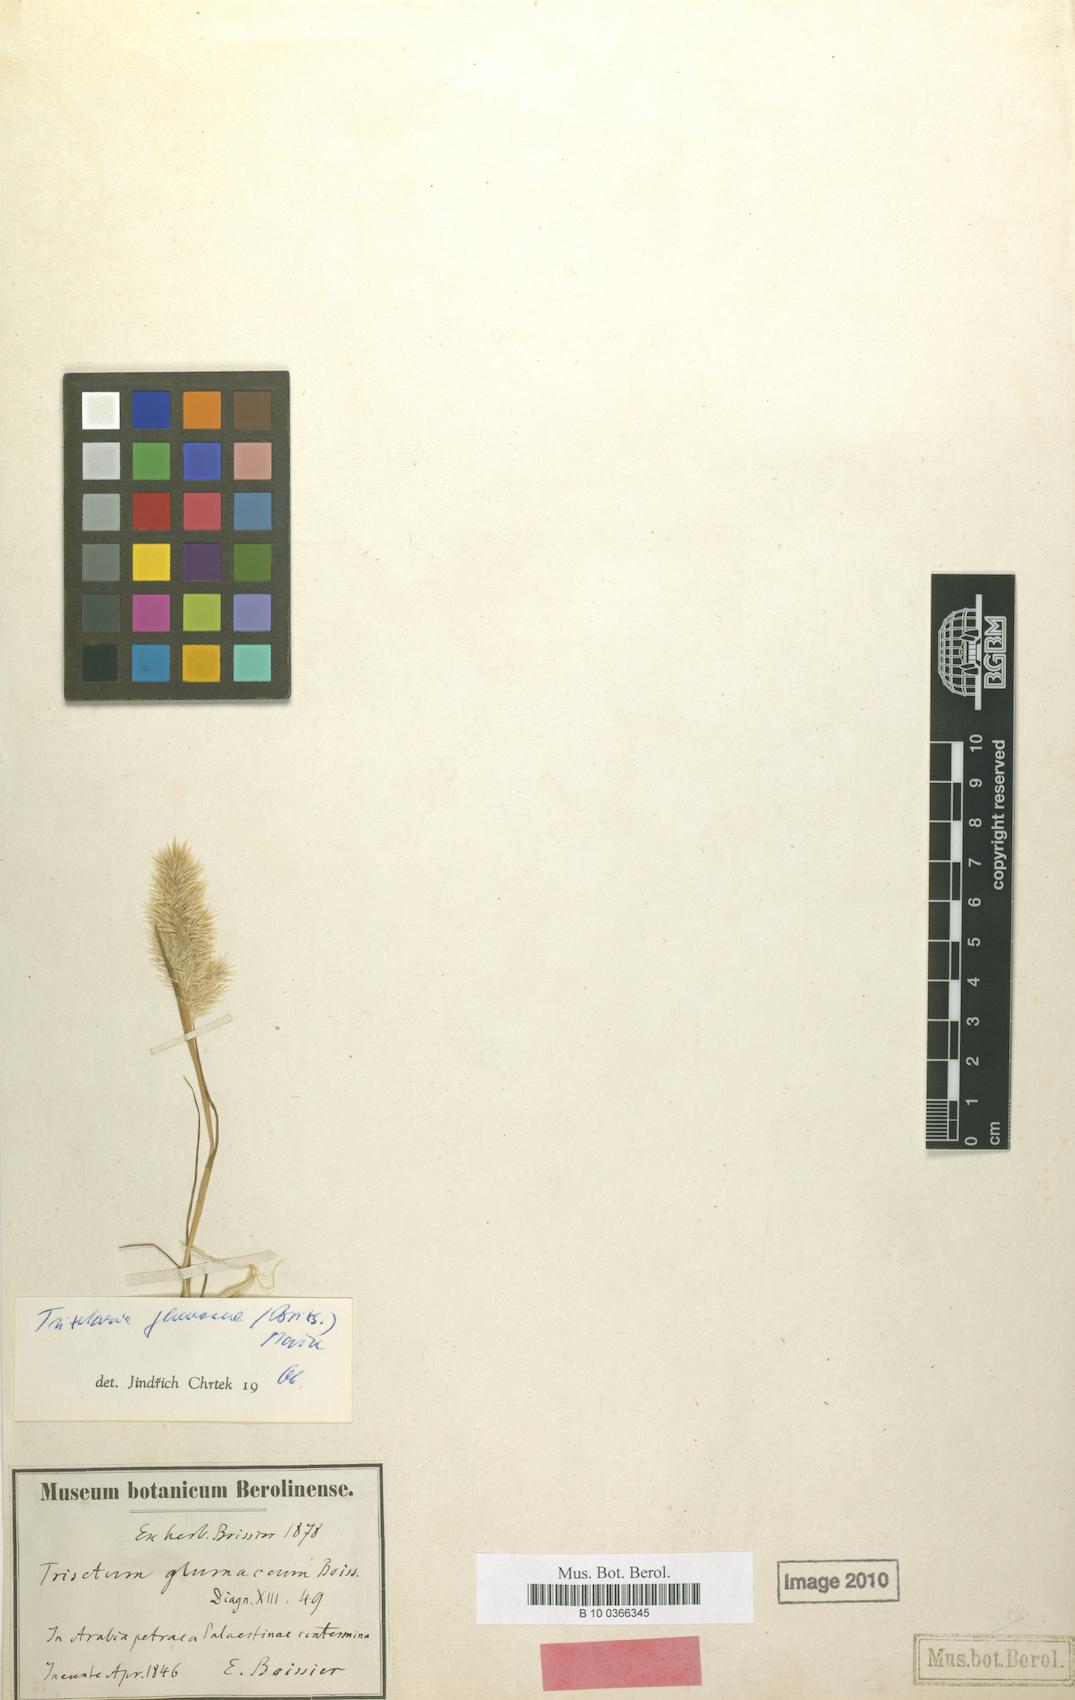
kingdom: Plantae
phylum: Tracheophyta
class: Liliopsida
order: Poales
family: Poaceae
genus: Trisetaria
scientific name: Trisetaria glumacea
